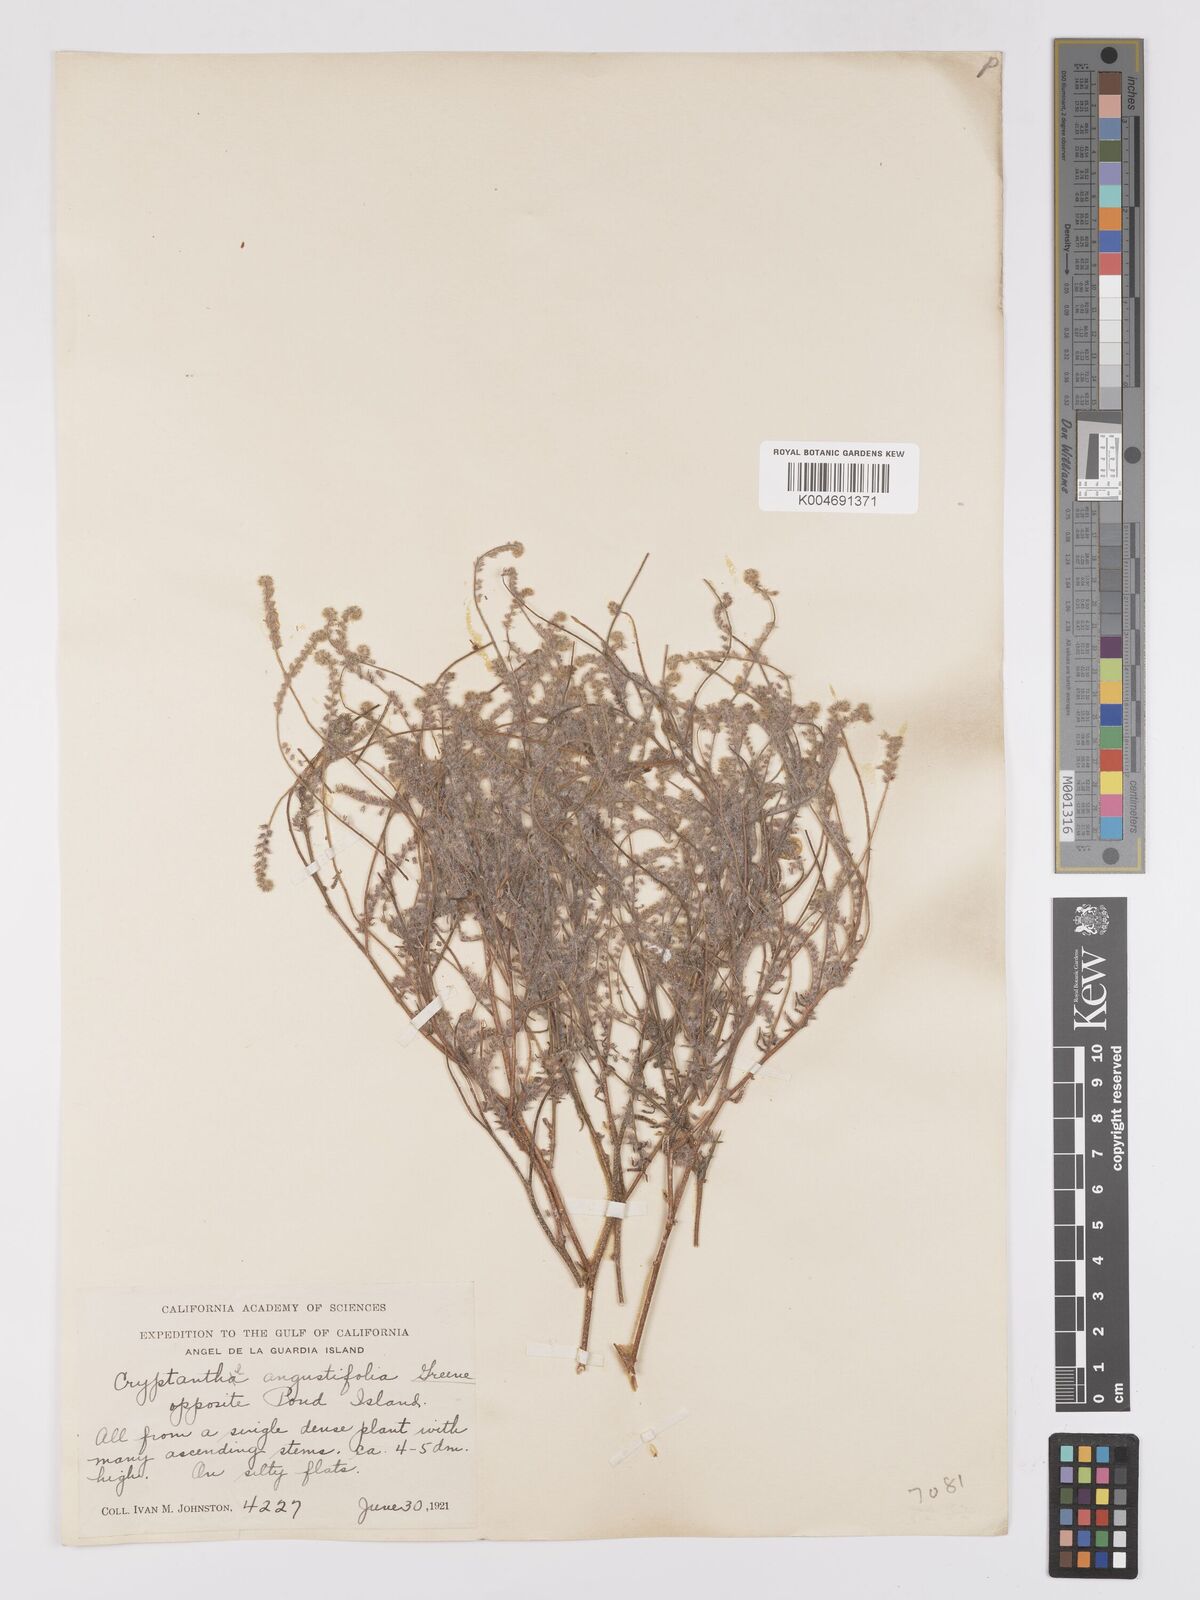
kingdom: Plantae
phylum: Tracheophyta
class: Magnoliopsida
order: Boraginales
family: Boraginaceae
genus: Johnstonella
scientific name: Johnstonella angustifolia
